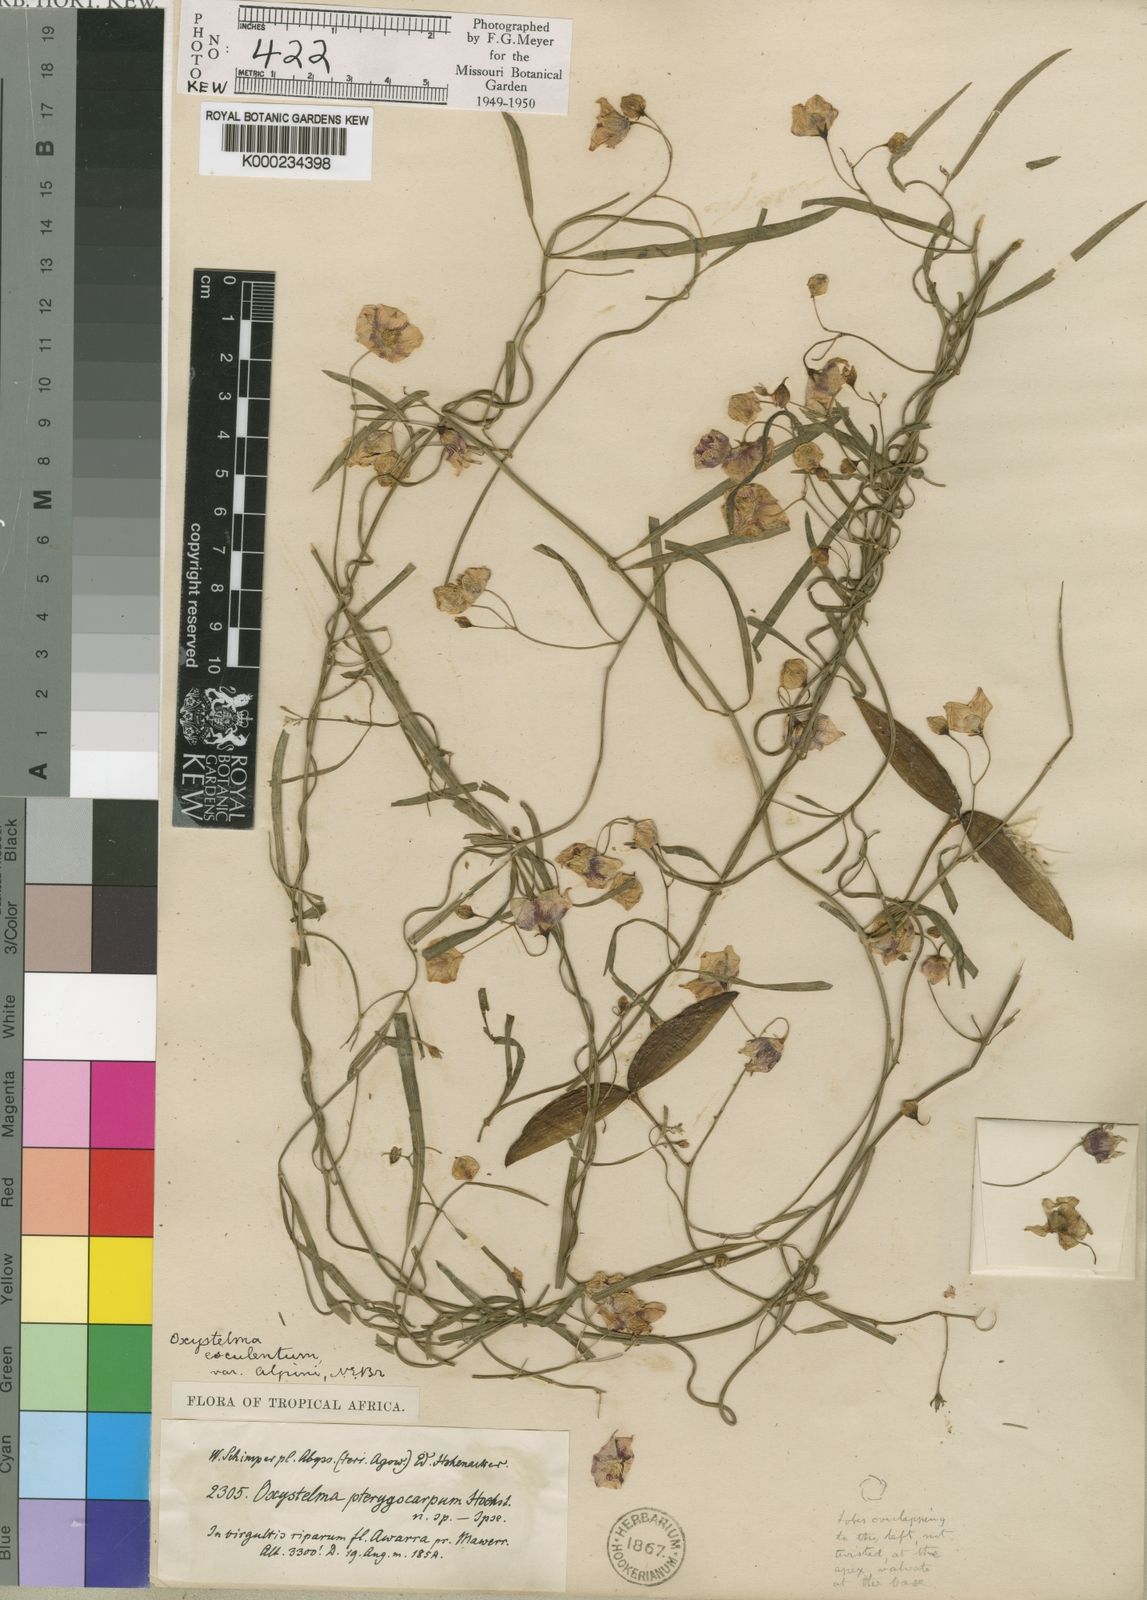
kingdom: Plantae
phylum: Tracheophyta
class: Magnoliopsida
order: Gentianales
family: Apocynaceae
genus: Oxystelma
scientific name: Oxystelma wallichii
